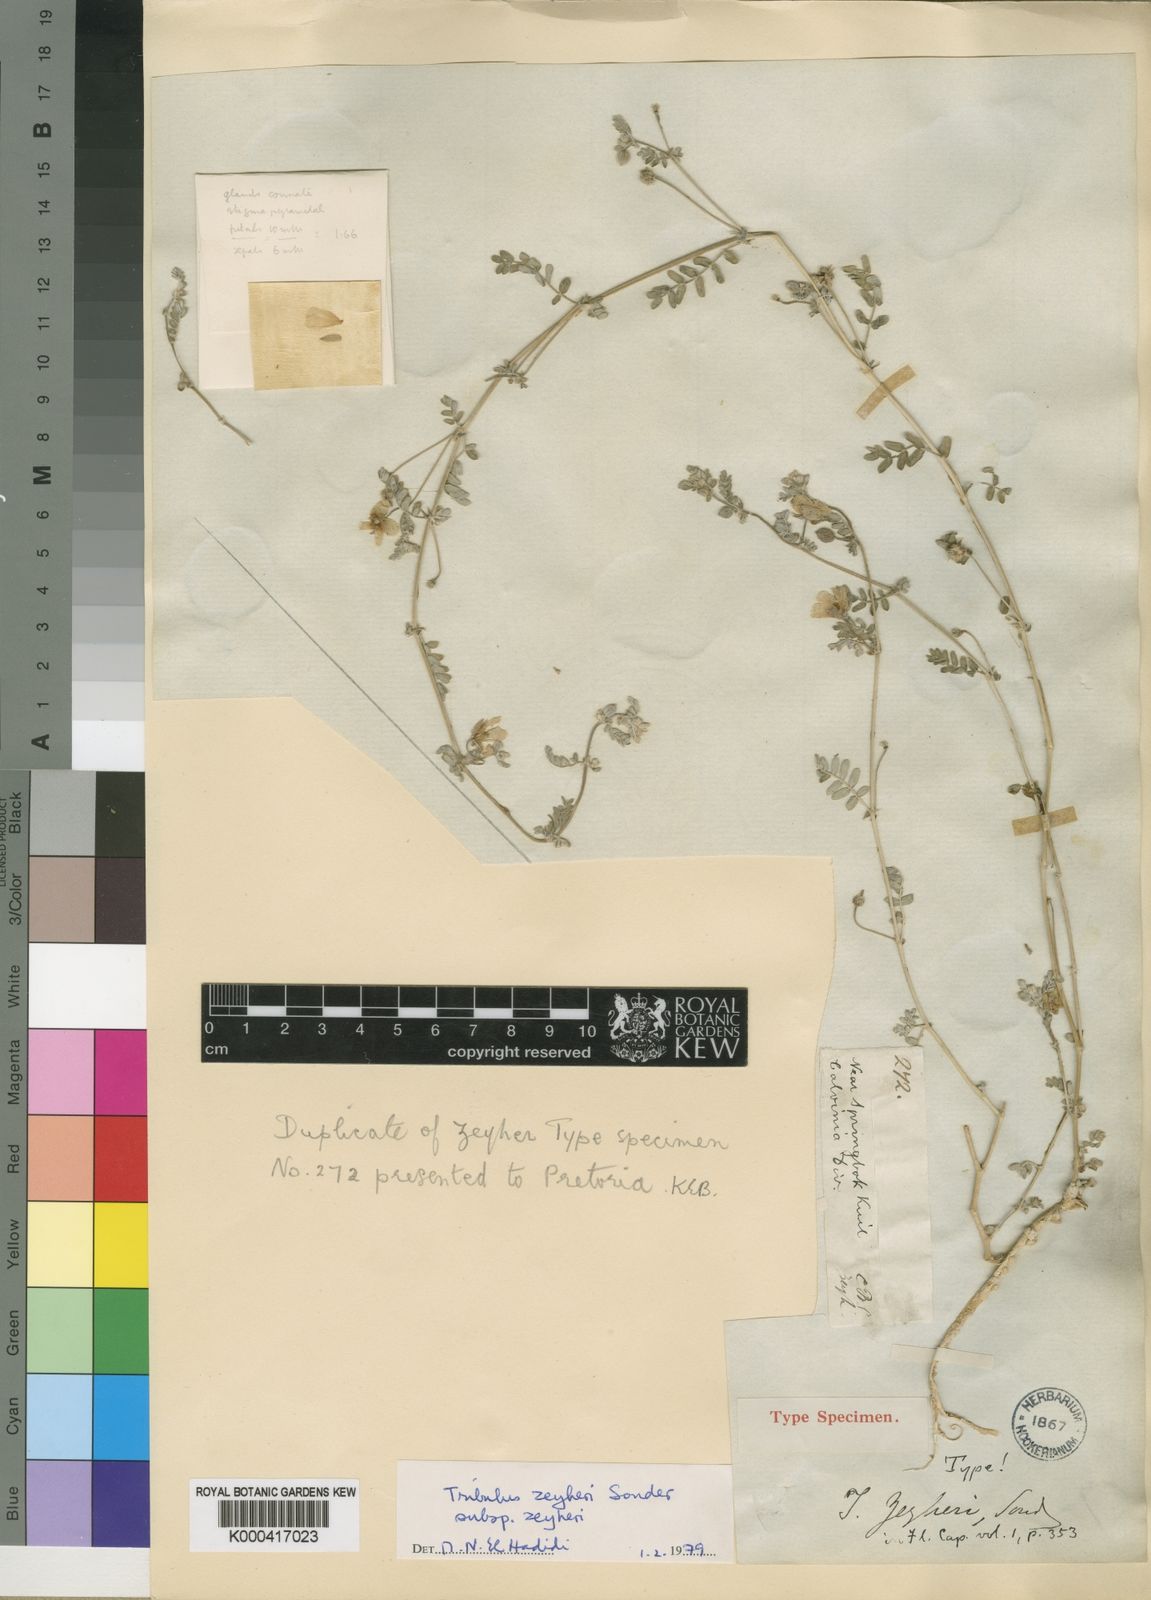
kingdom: Plantae
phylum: Tracheophyta
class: Magnoliopsida
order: Zygophyllales
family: Zygophyllaceae
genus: Tribulus
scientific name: Tribulus zeyheri
